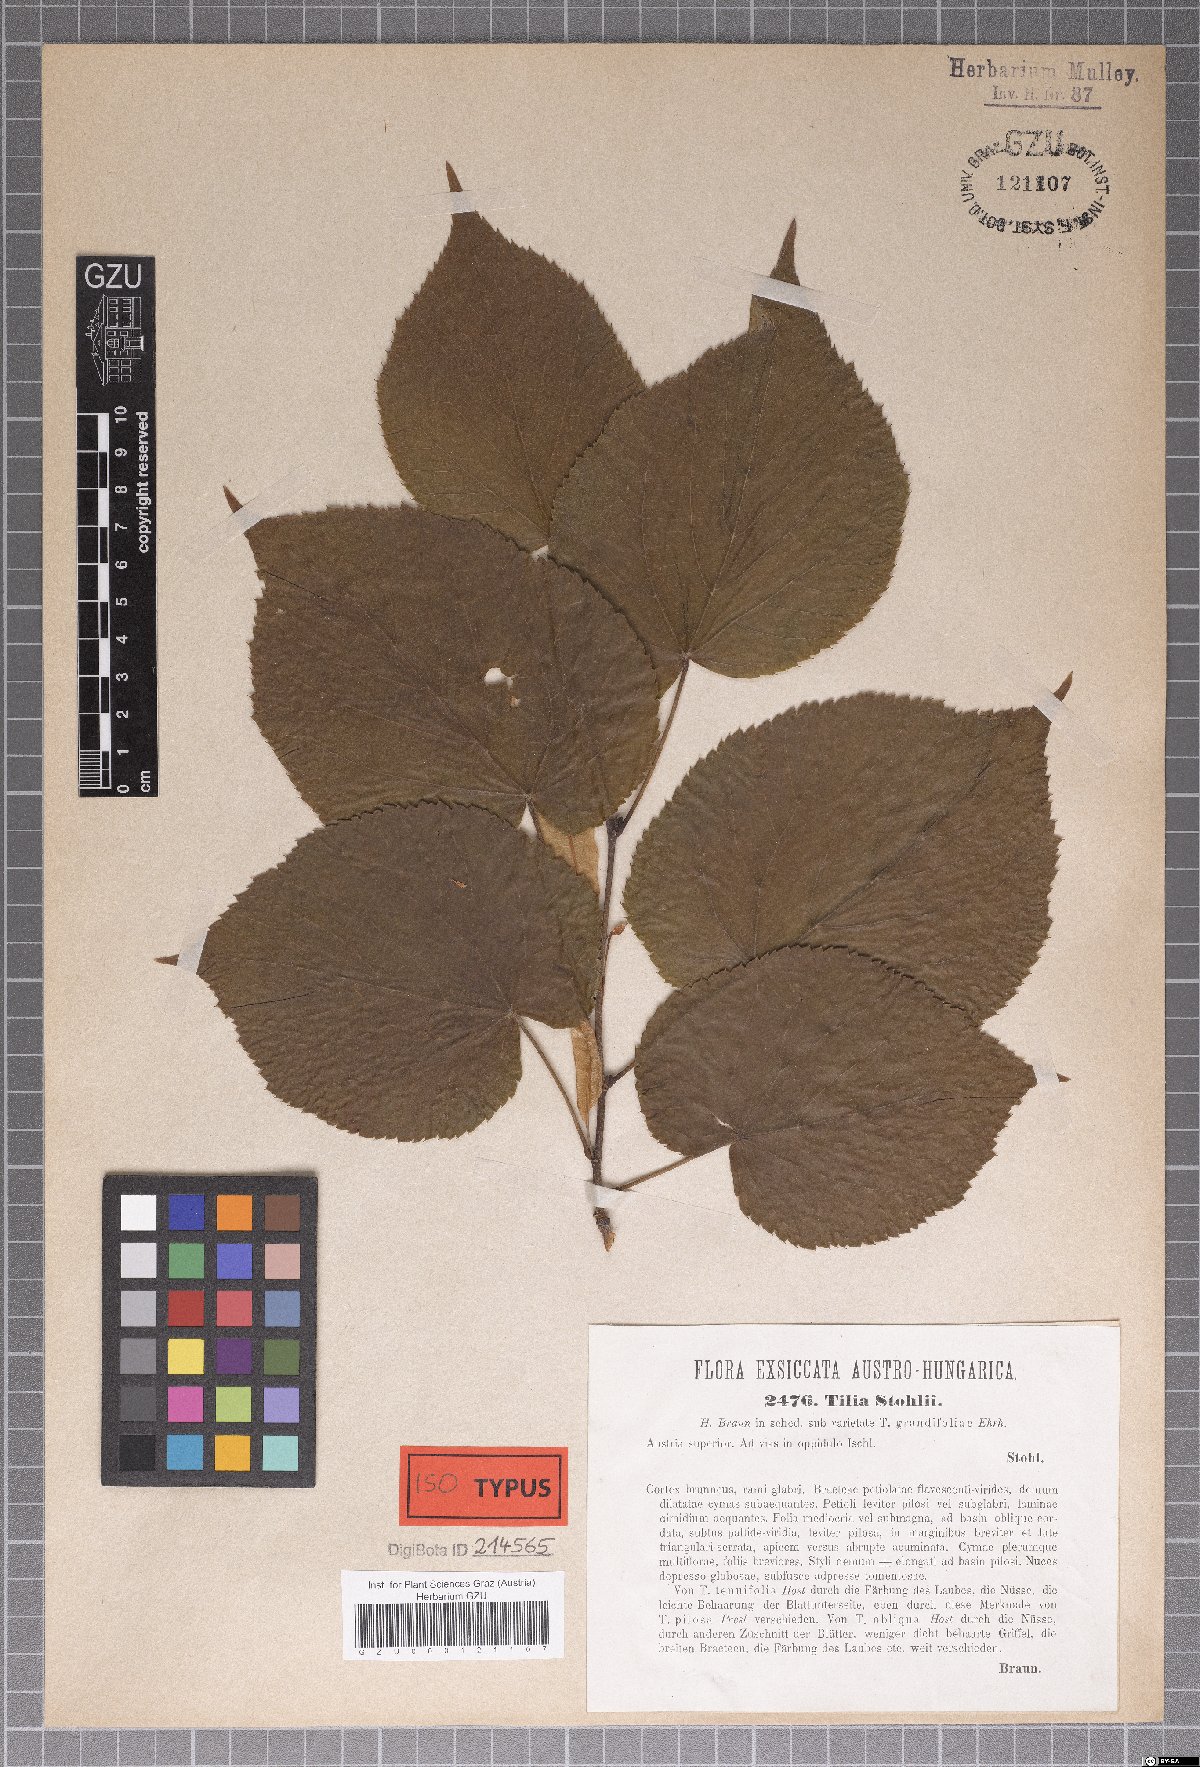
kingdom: Plantae
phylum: Tracheophyta
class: Magnoliopsida
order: Malvales
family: Malvaceae
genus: Tilia
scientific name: Tilia stohlii
